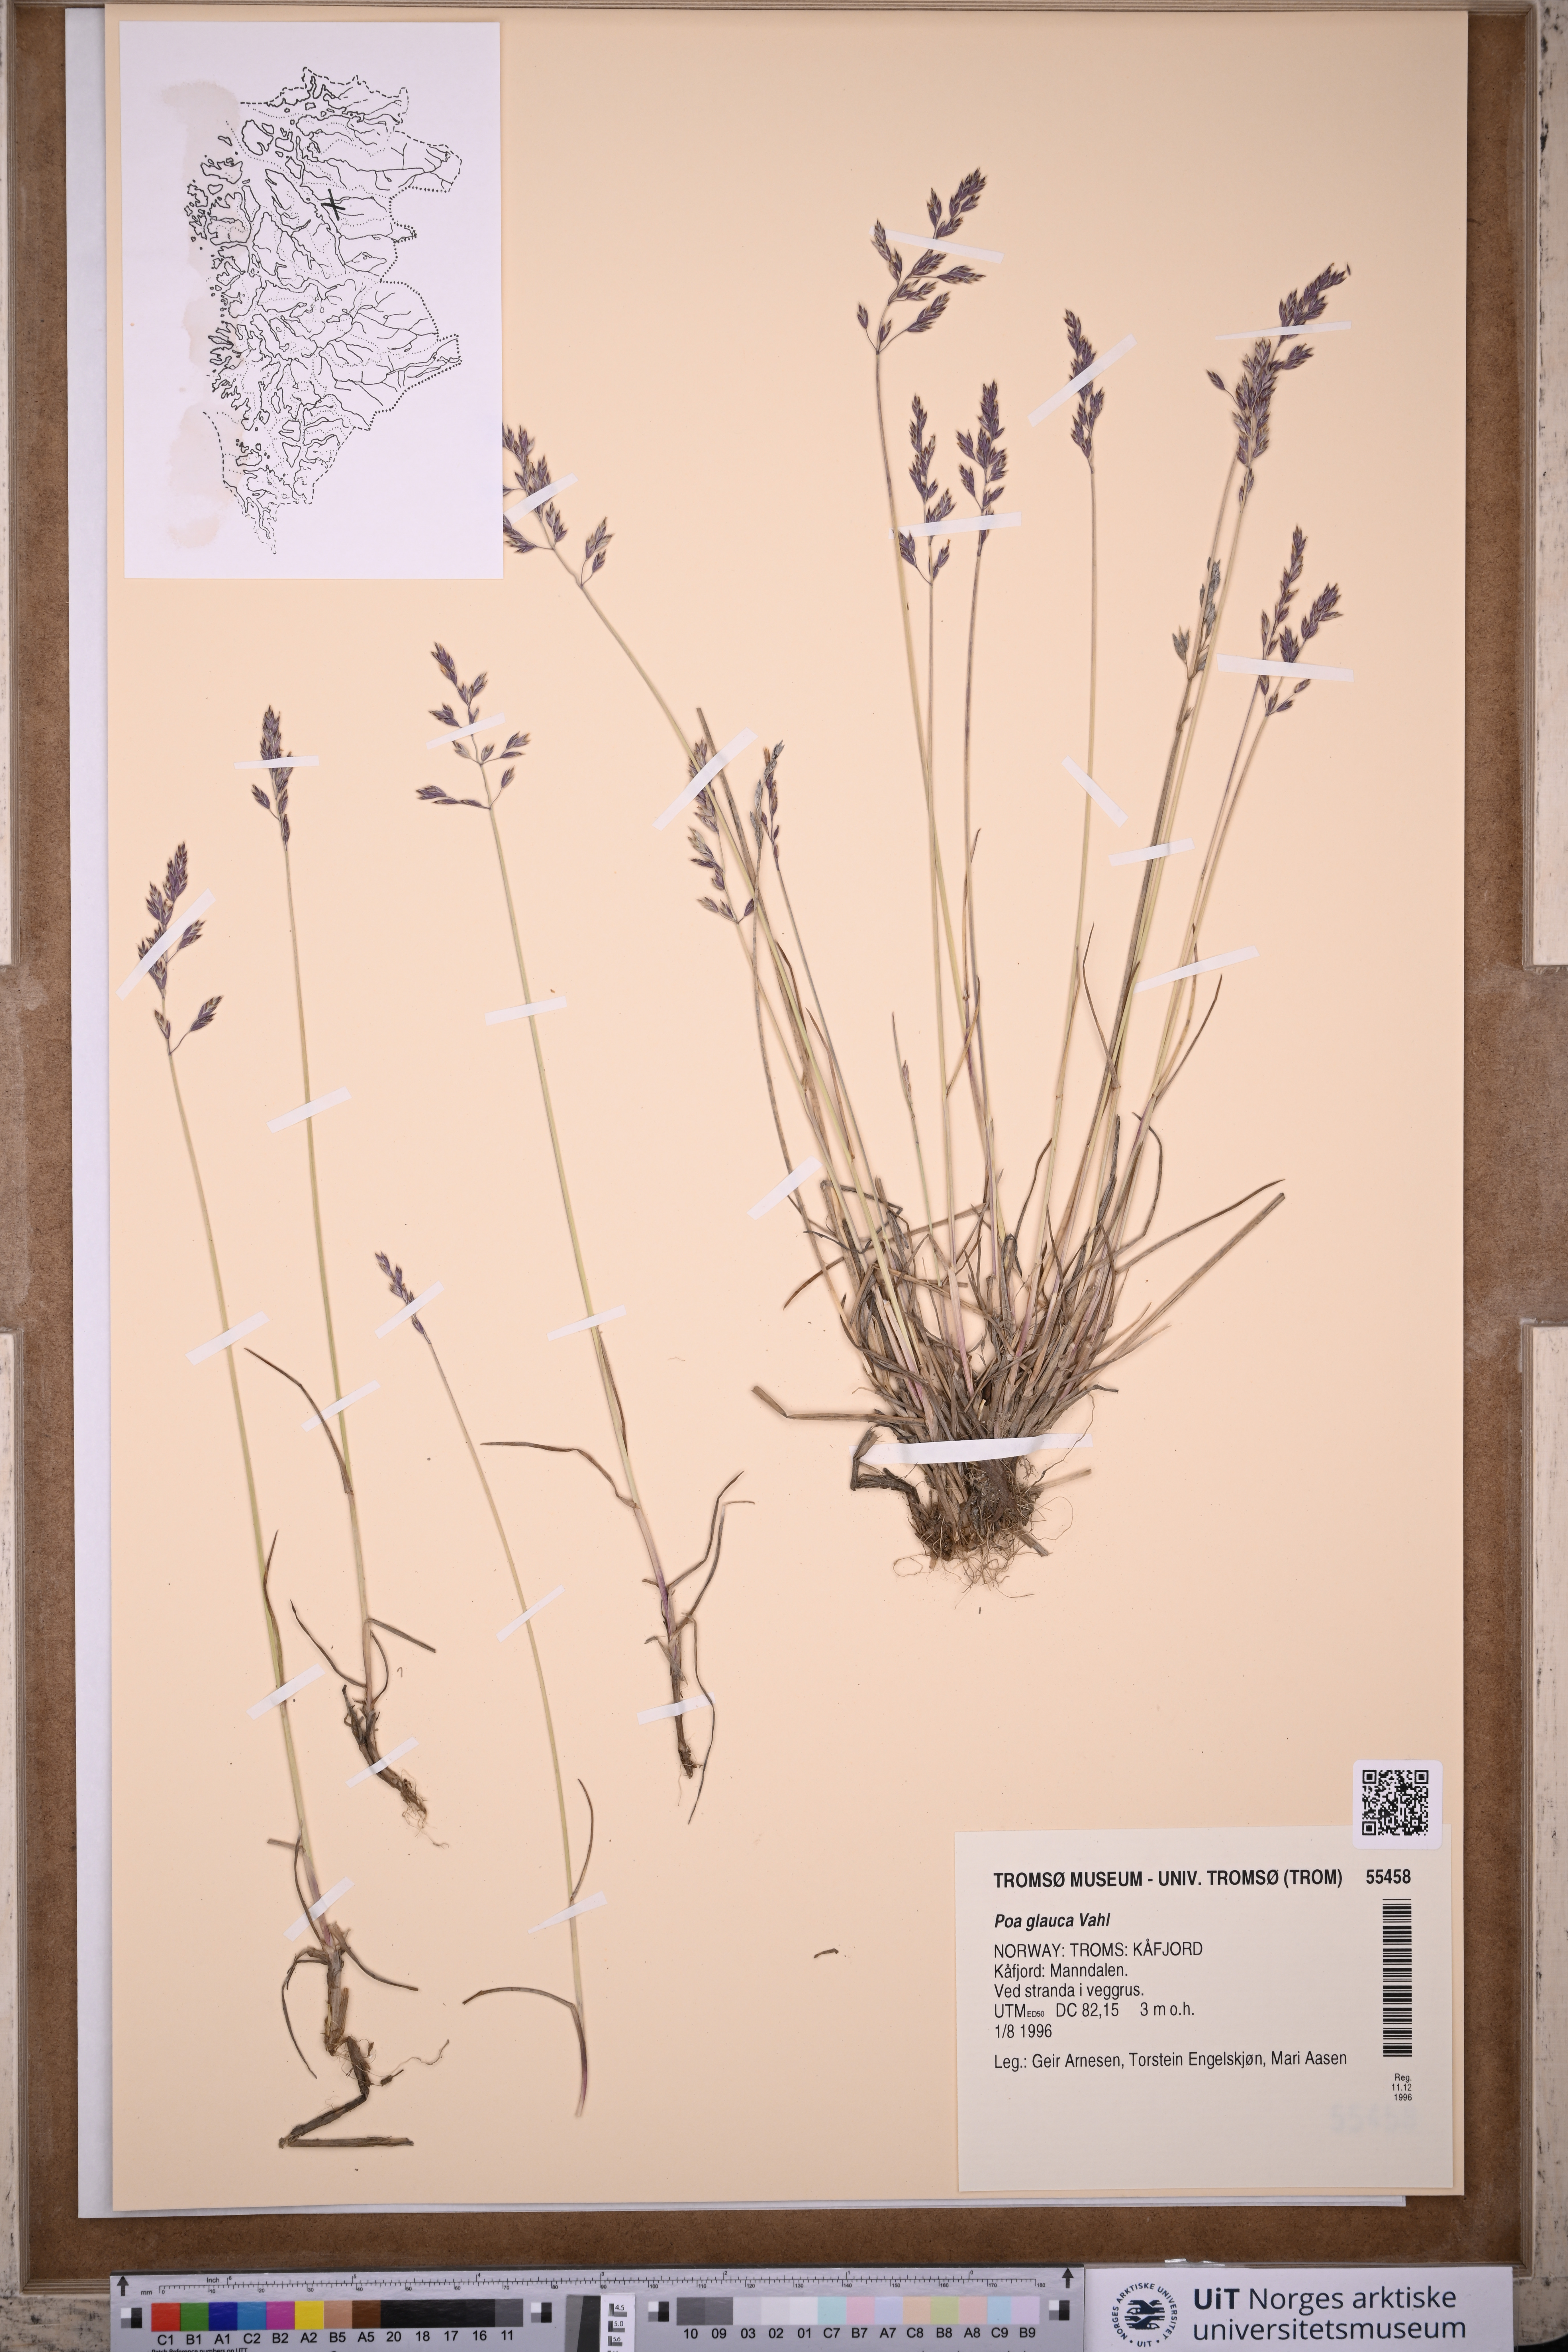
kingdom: Plantae
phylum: Tracheophyta
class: Liliopsida
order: Poales
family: Poaceae
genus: Poa
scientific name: Poa glauca
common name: Glaucous bluegrass
